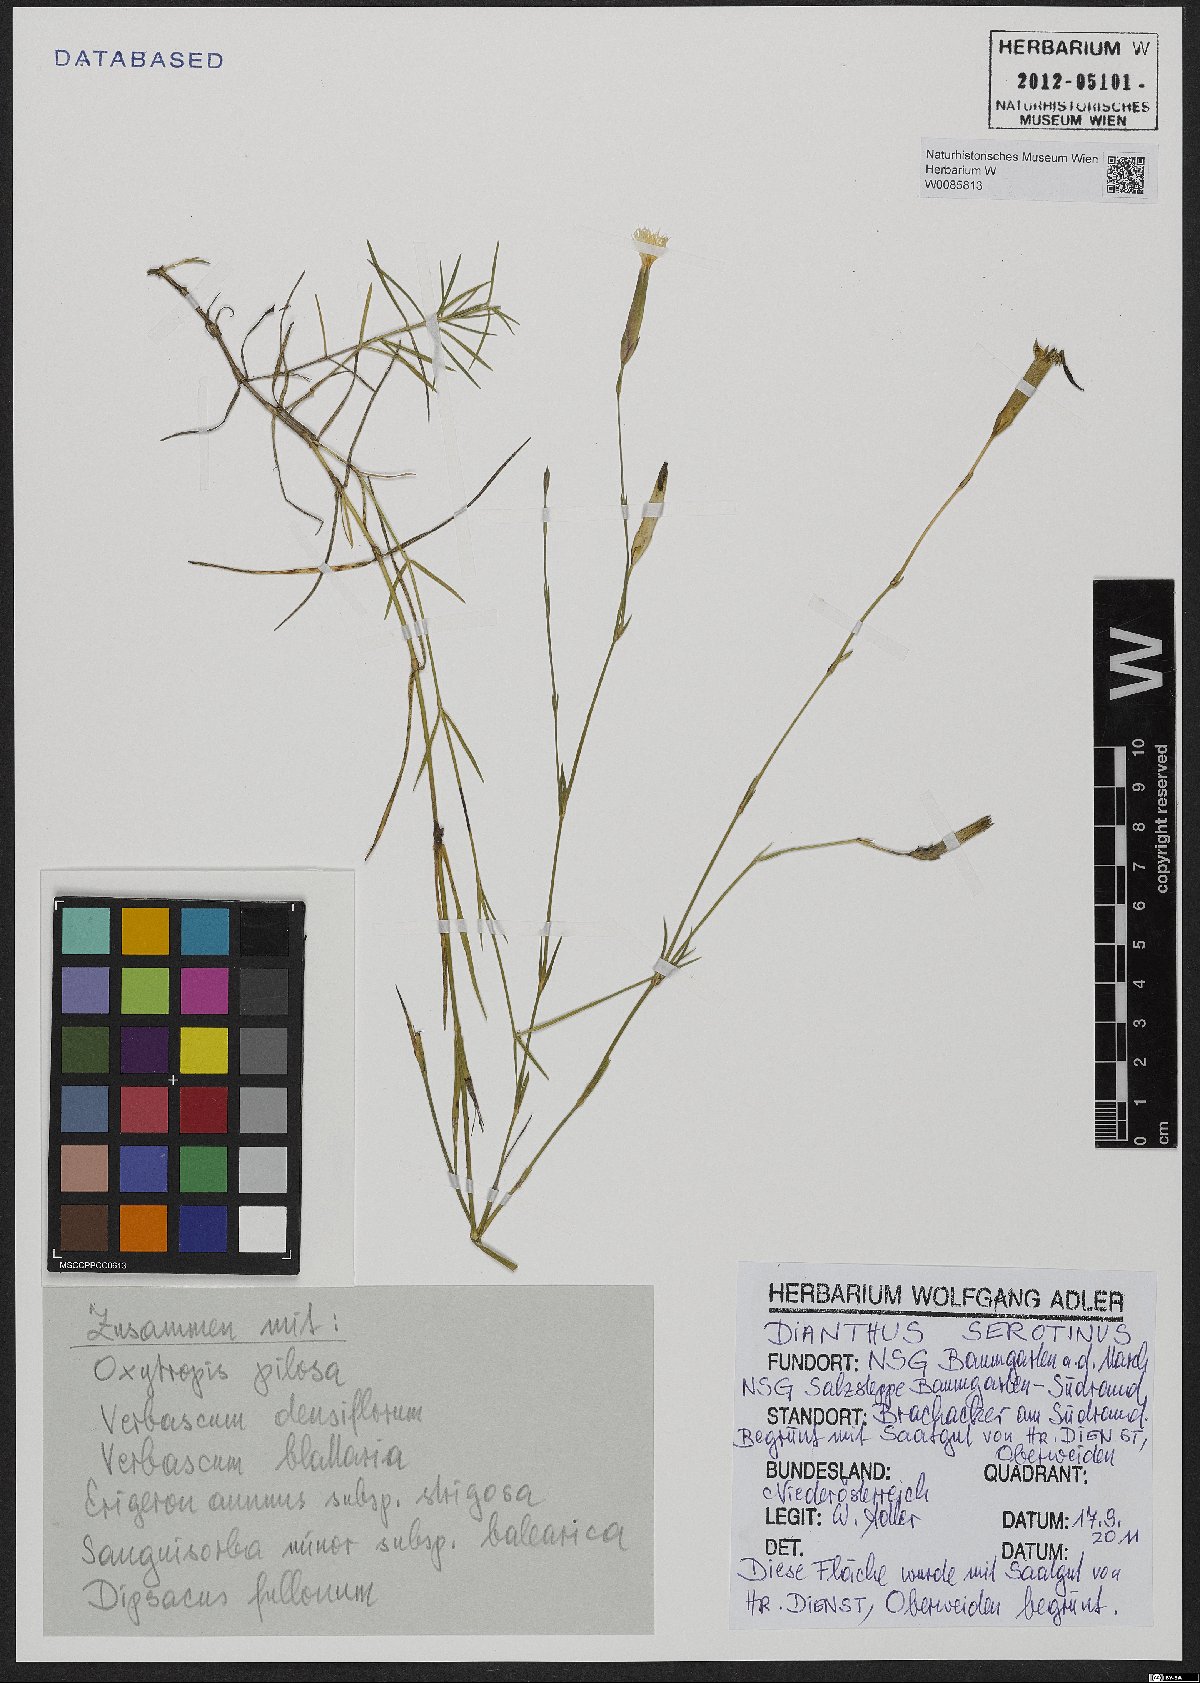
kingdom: Plantae
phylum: Tracheophyta
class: Magnoliopsida
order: Caryophyllales
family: Caryophyllaceae
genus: Dianthus
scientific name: Dianthus serotinus
